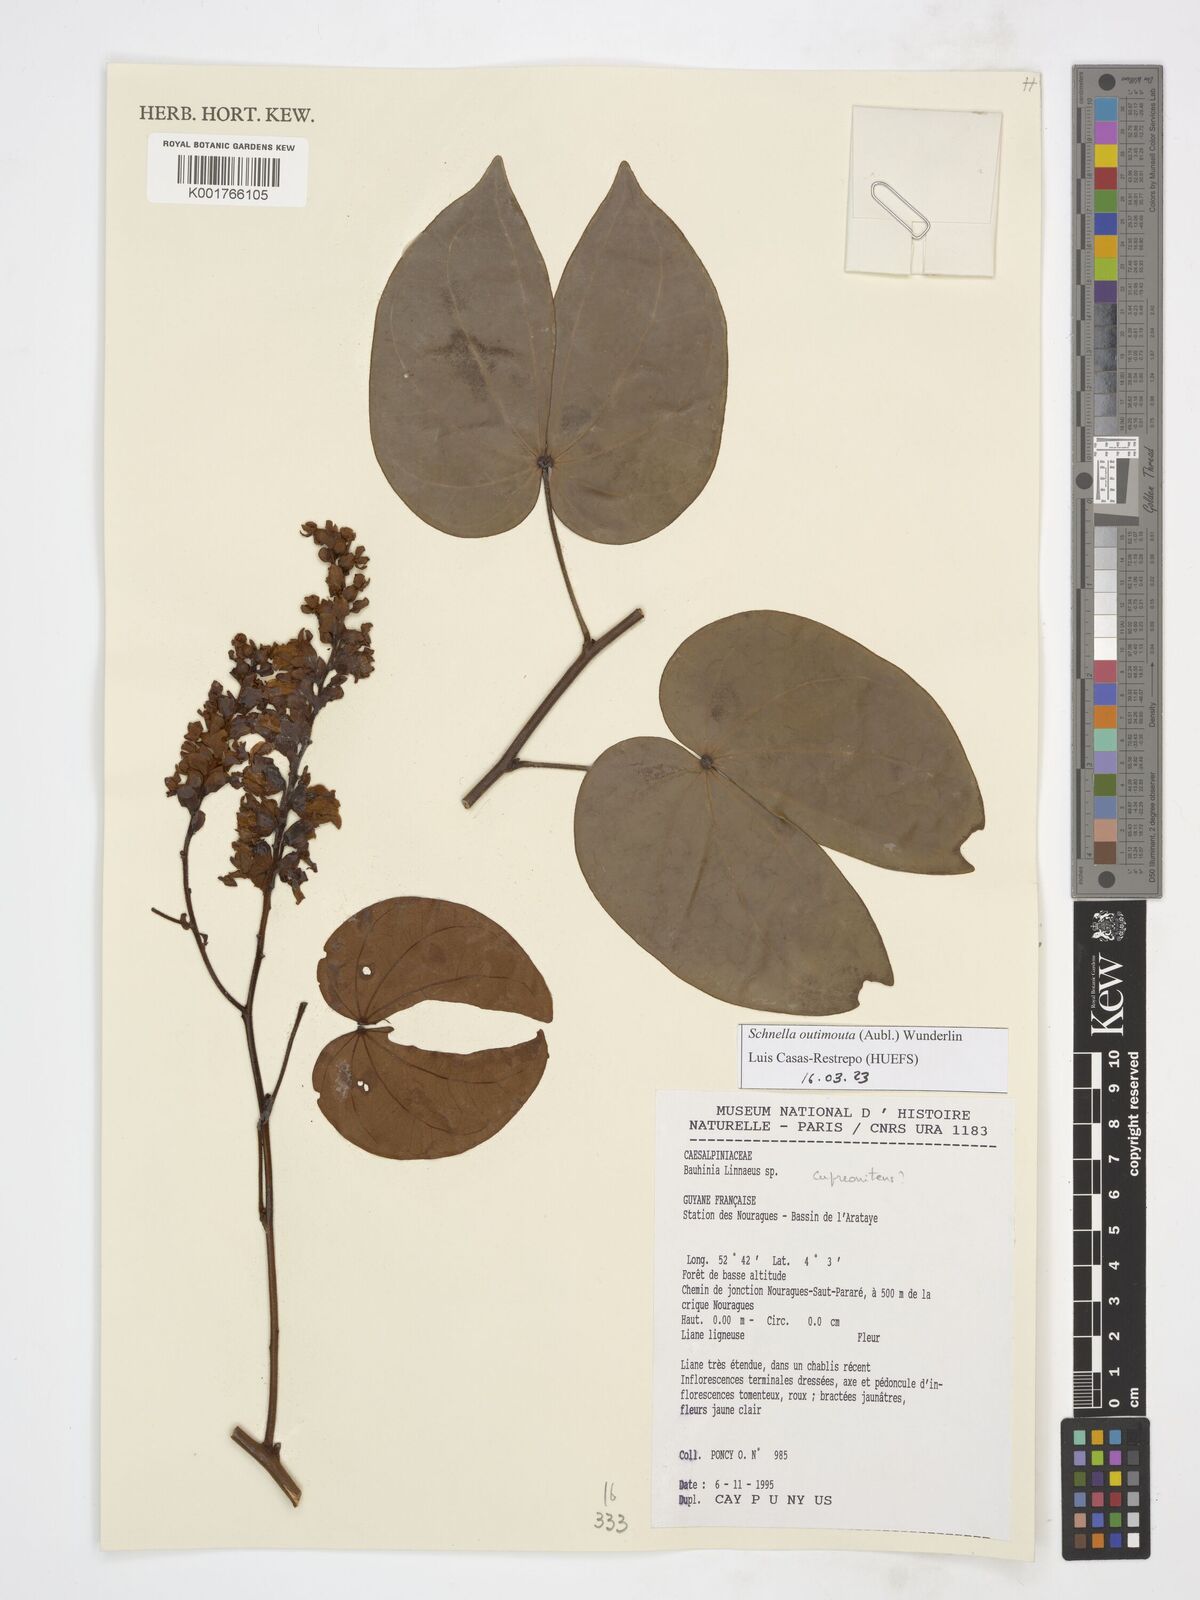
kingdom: Plantae
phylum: Tracheophyta
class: Magnoliopsida
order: Fabales
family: Fabaceae
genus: Schnella
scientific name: Schnella outimouta
